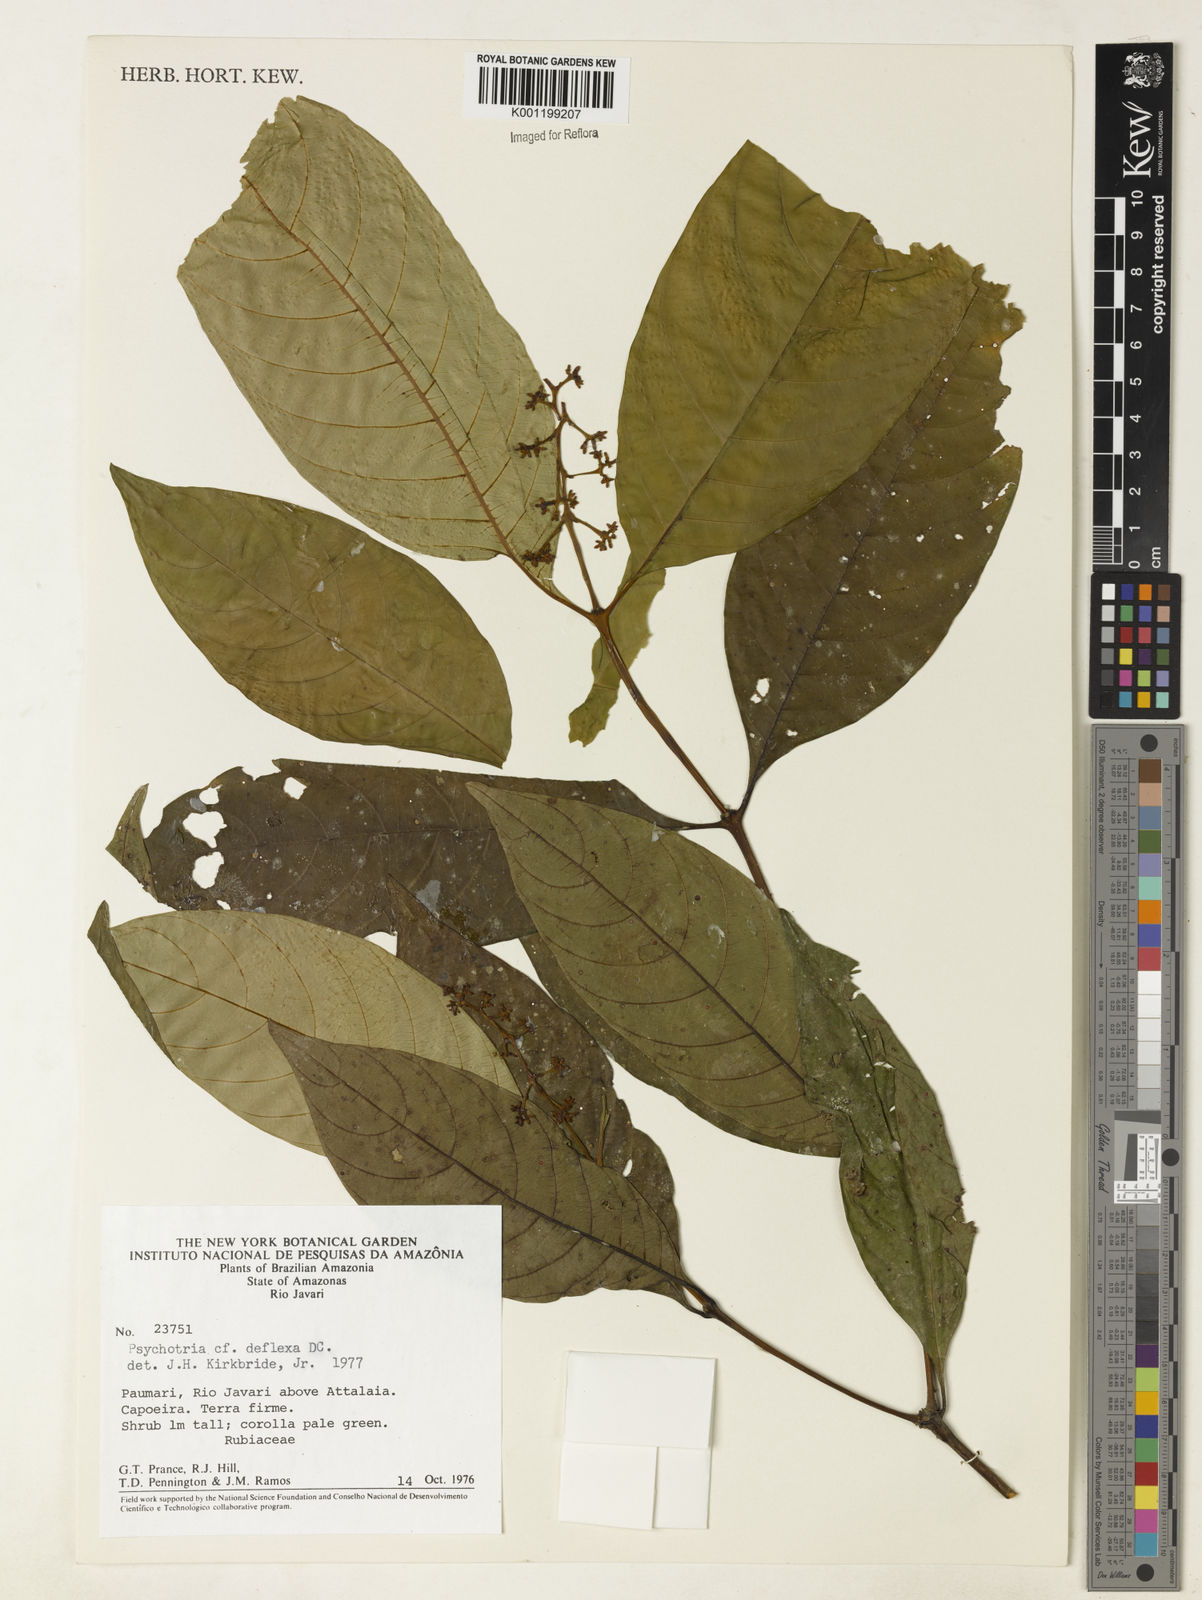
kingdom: Plantae
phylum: Tracheophyta
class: Magnoliopsida
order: Gentianales
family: Rubiaceae
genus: Palicourea
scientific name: Palicourea deflexa
